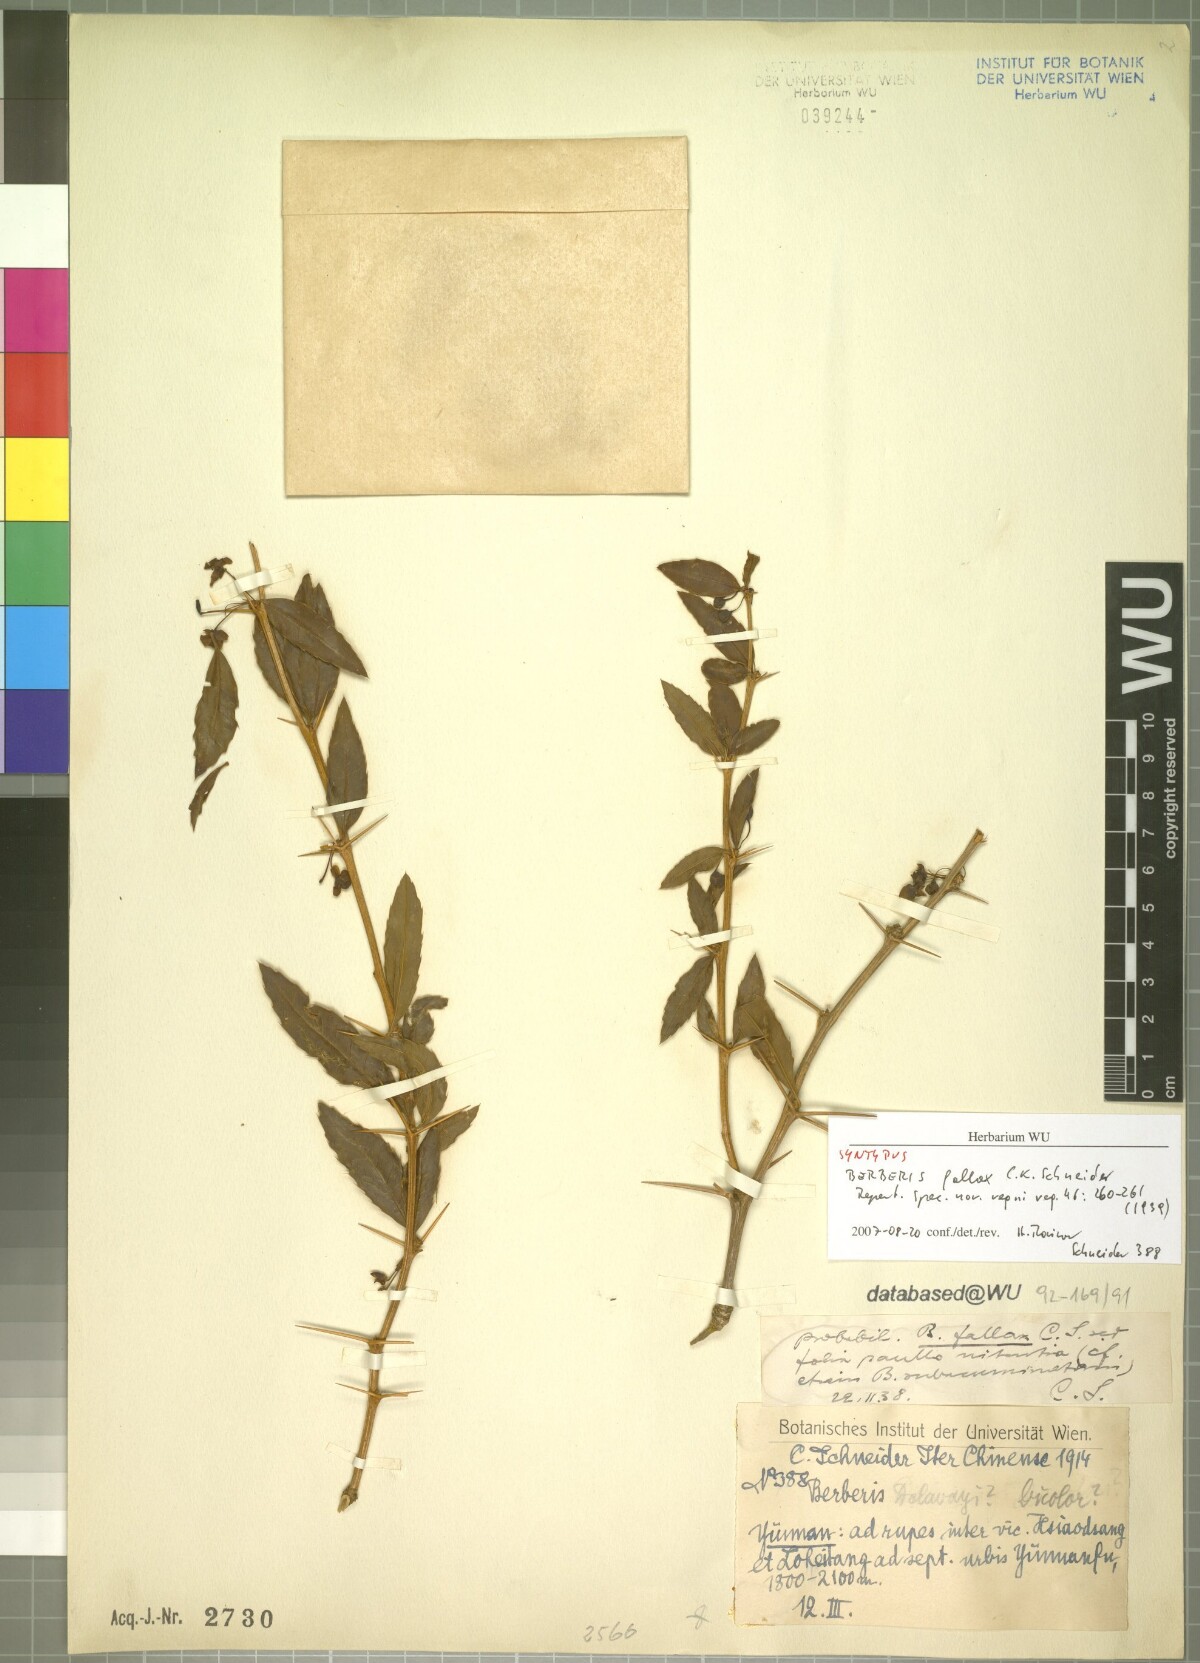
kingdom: Plantae
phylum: Tracheophyta
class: Magnoliopsida
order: Ranunculales
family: Berberidaceae
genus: Berberis
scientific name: Berberis fallax
